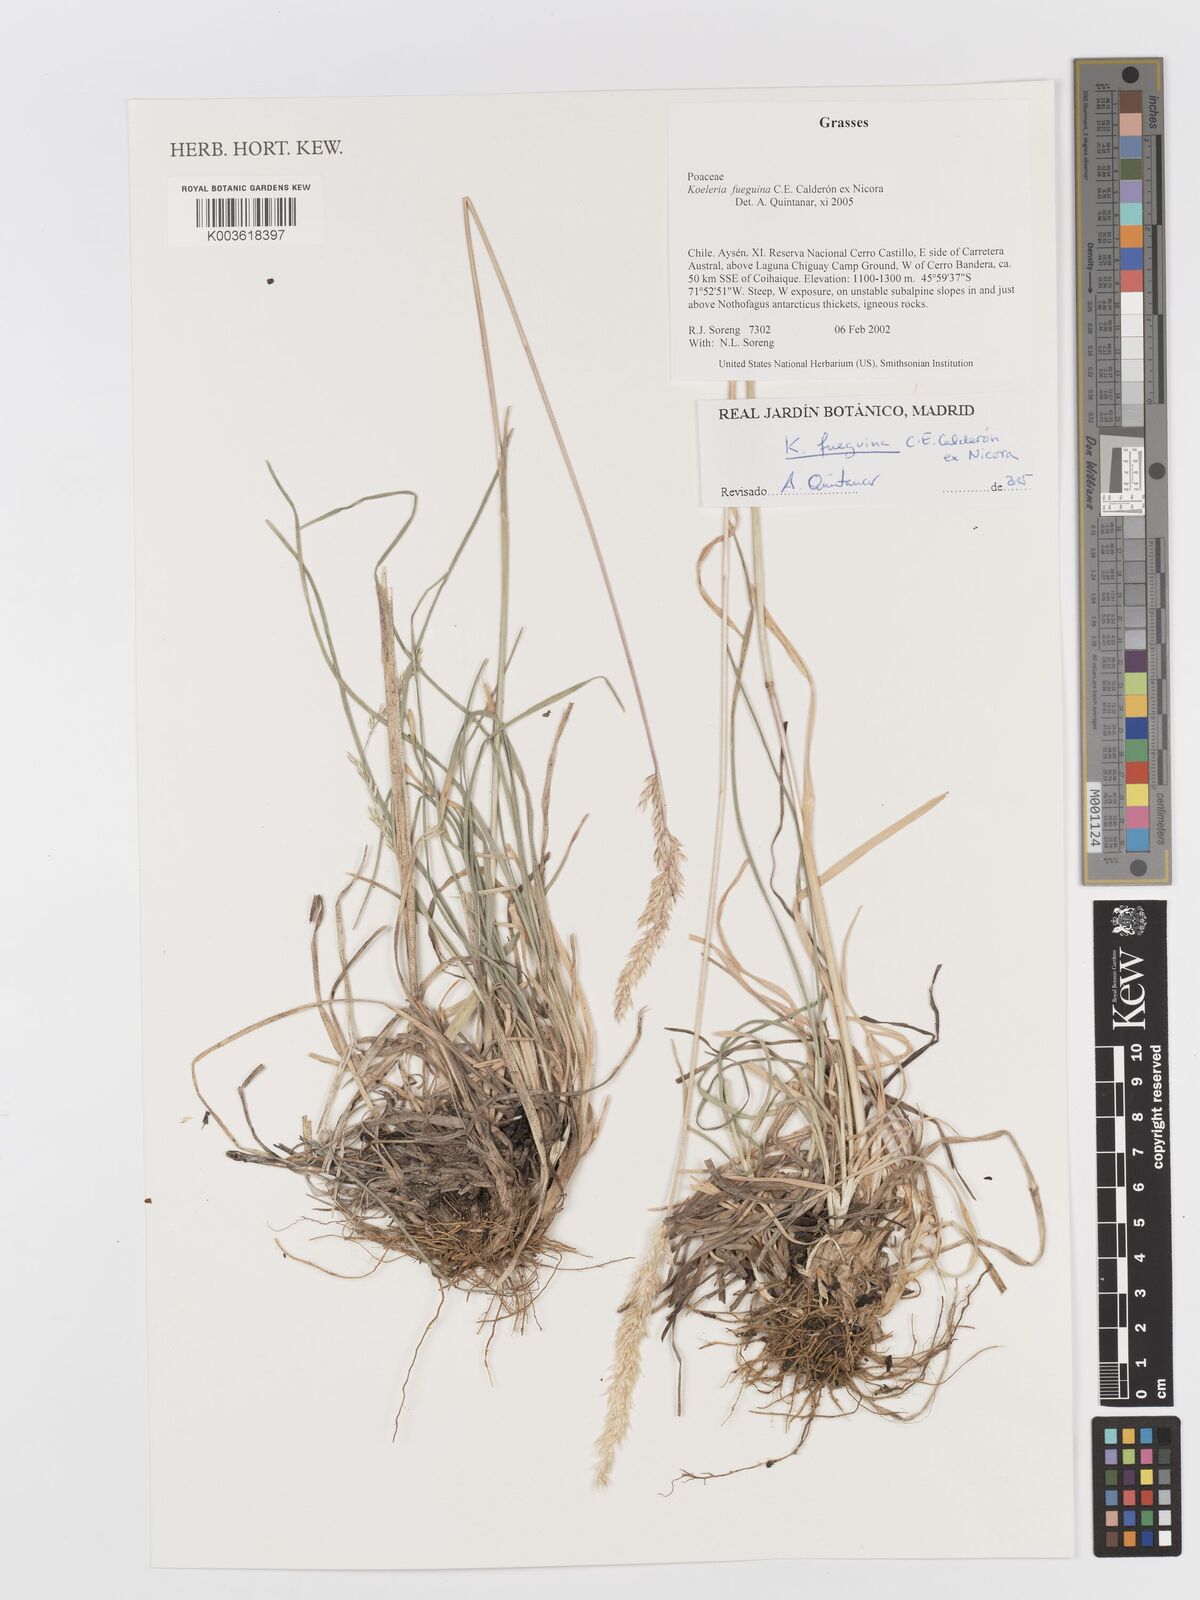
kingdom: Plantae
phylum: Tracheophyta
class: Liliopsida
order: Poales
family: Poaceae
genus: Koeleria
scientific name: Koeleria fueguina
